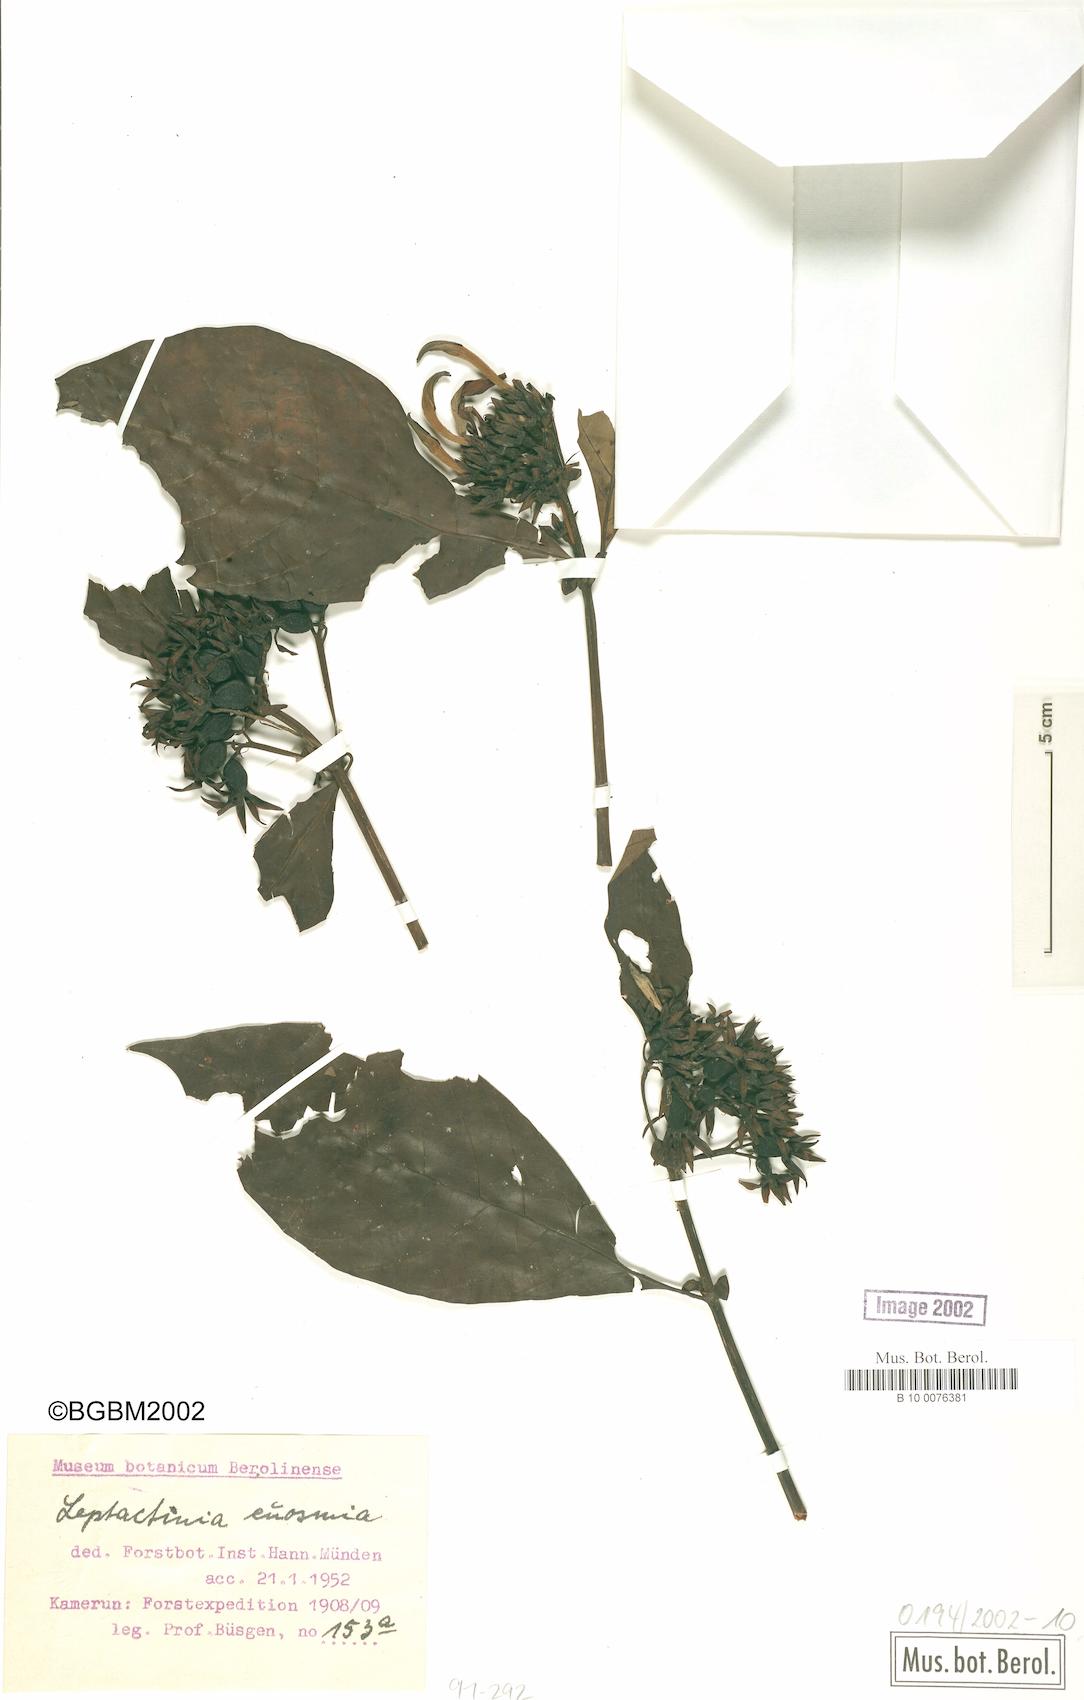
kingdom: Plantae
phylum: Tracheophyta
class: Magnoliopsida
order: Gentianales
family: Rubiaceae
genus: Leptactinia
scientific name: Leptactinia
